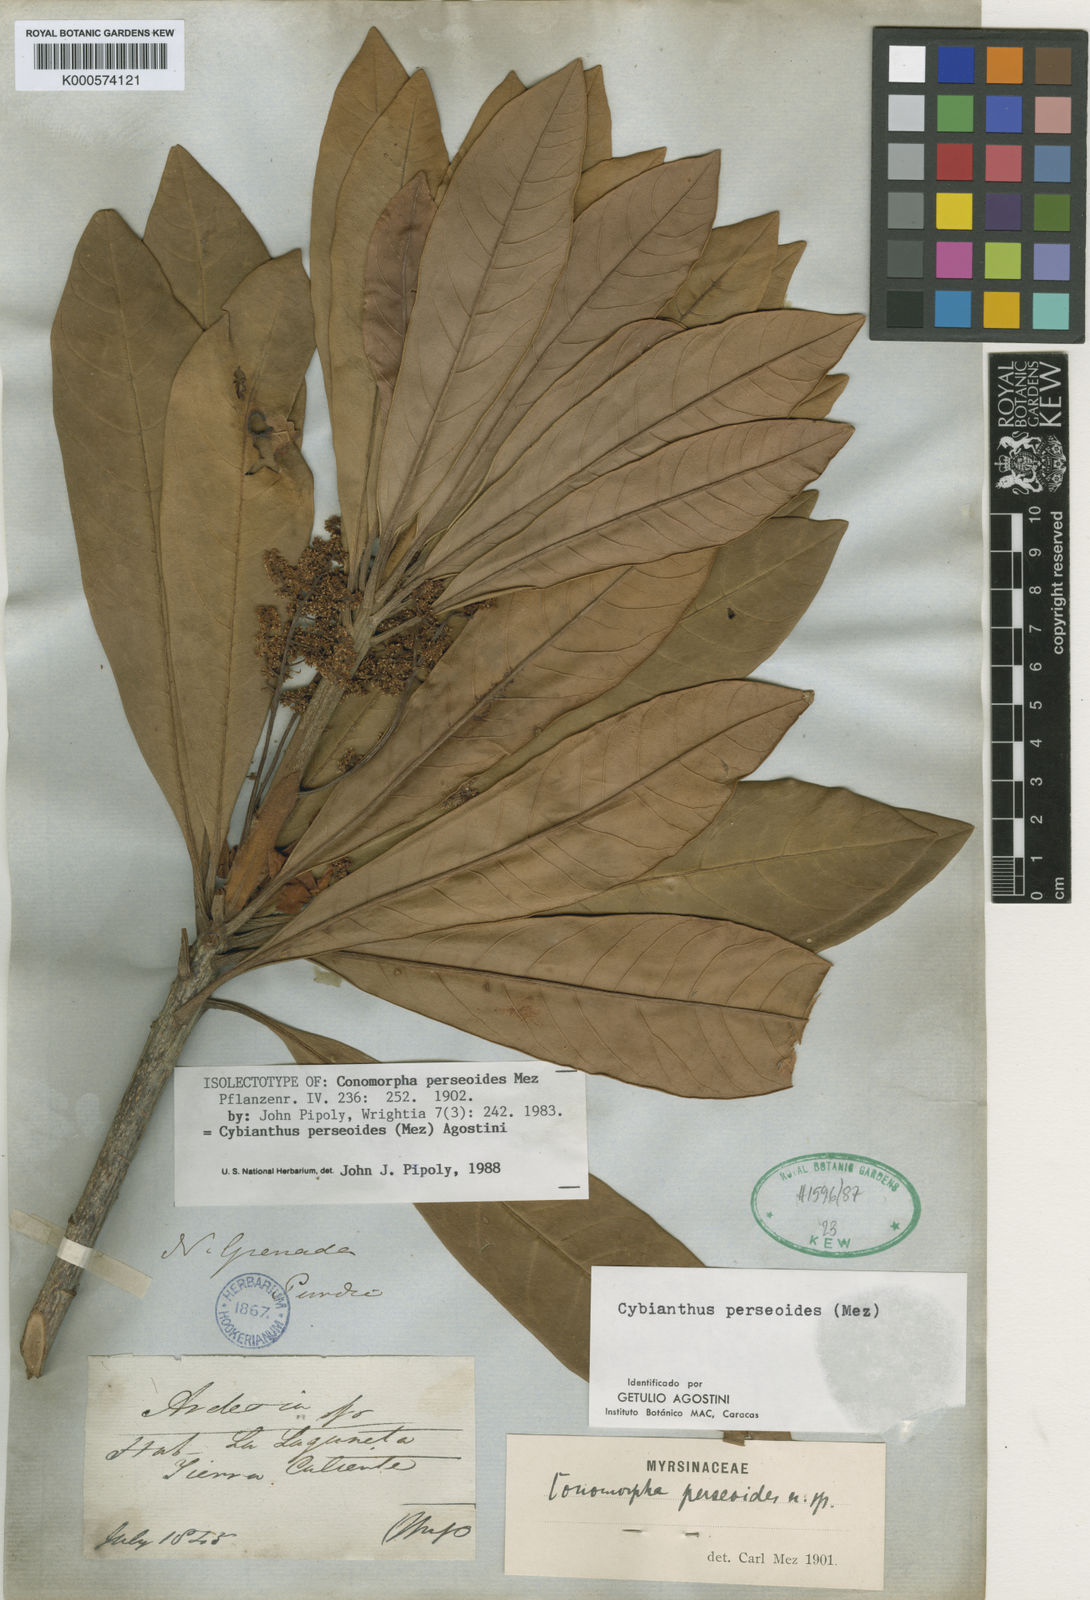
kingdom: Plantae
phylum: Tracheophyta
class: Magnoliopsida
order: Ericales
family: Primulaceae
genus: Cybianthus
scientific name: Cybianthus perseoides
